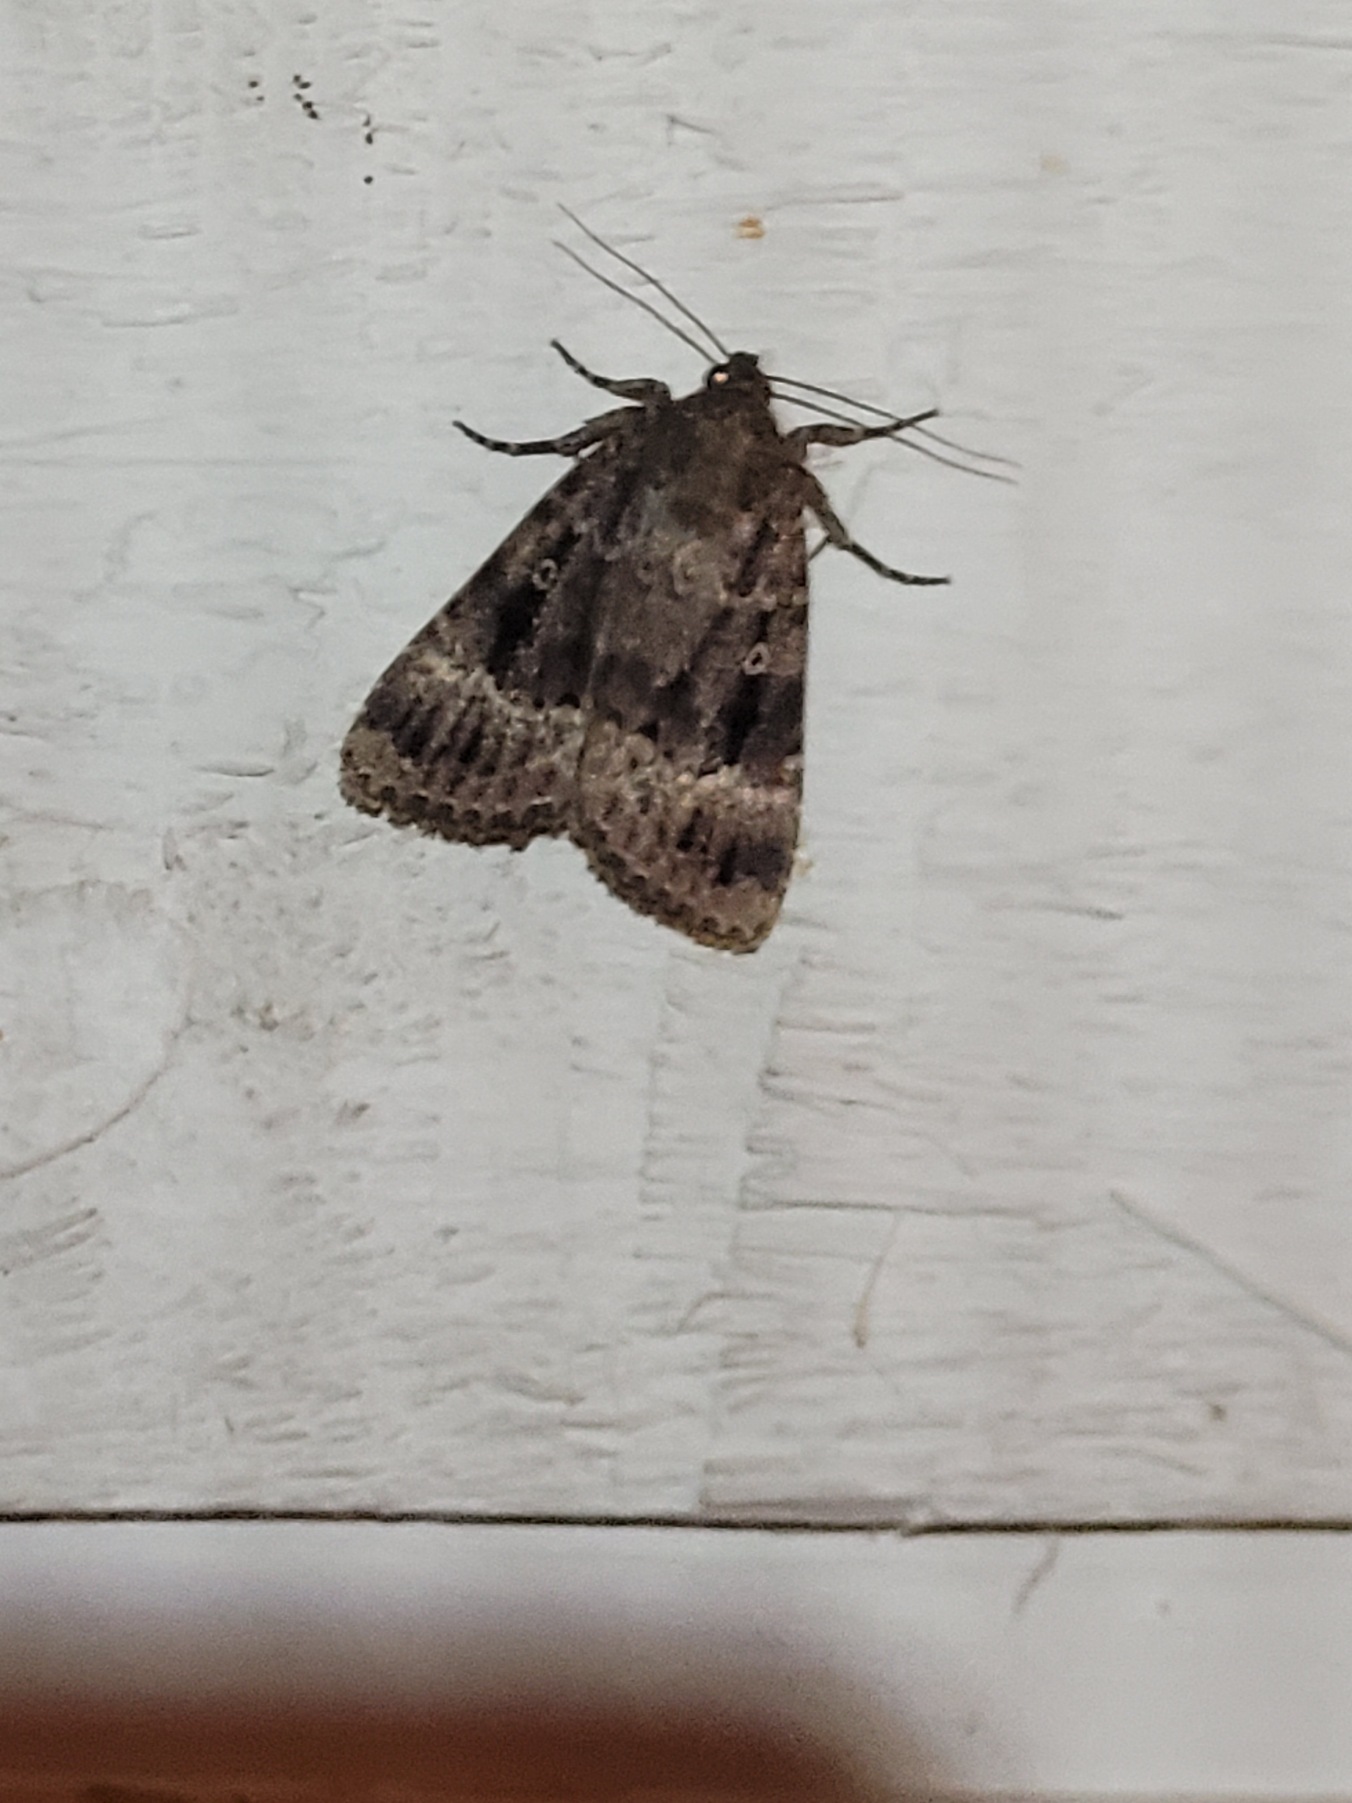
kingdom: Animalia
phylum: Arthropoda
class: Insecta
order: Lepidoptera
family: Noctuidae
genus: Amphipyra
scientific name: Amphipyra pyramidea
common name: Pyramideugle
